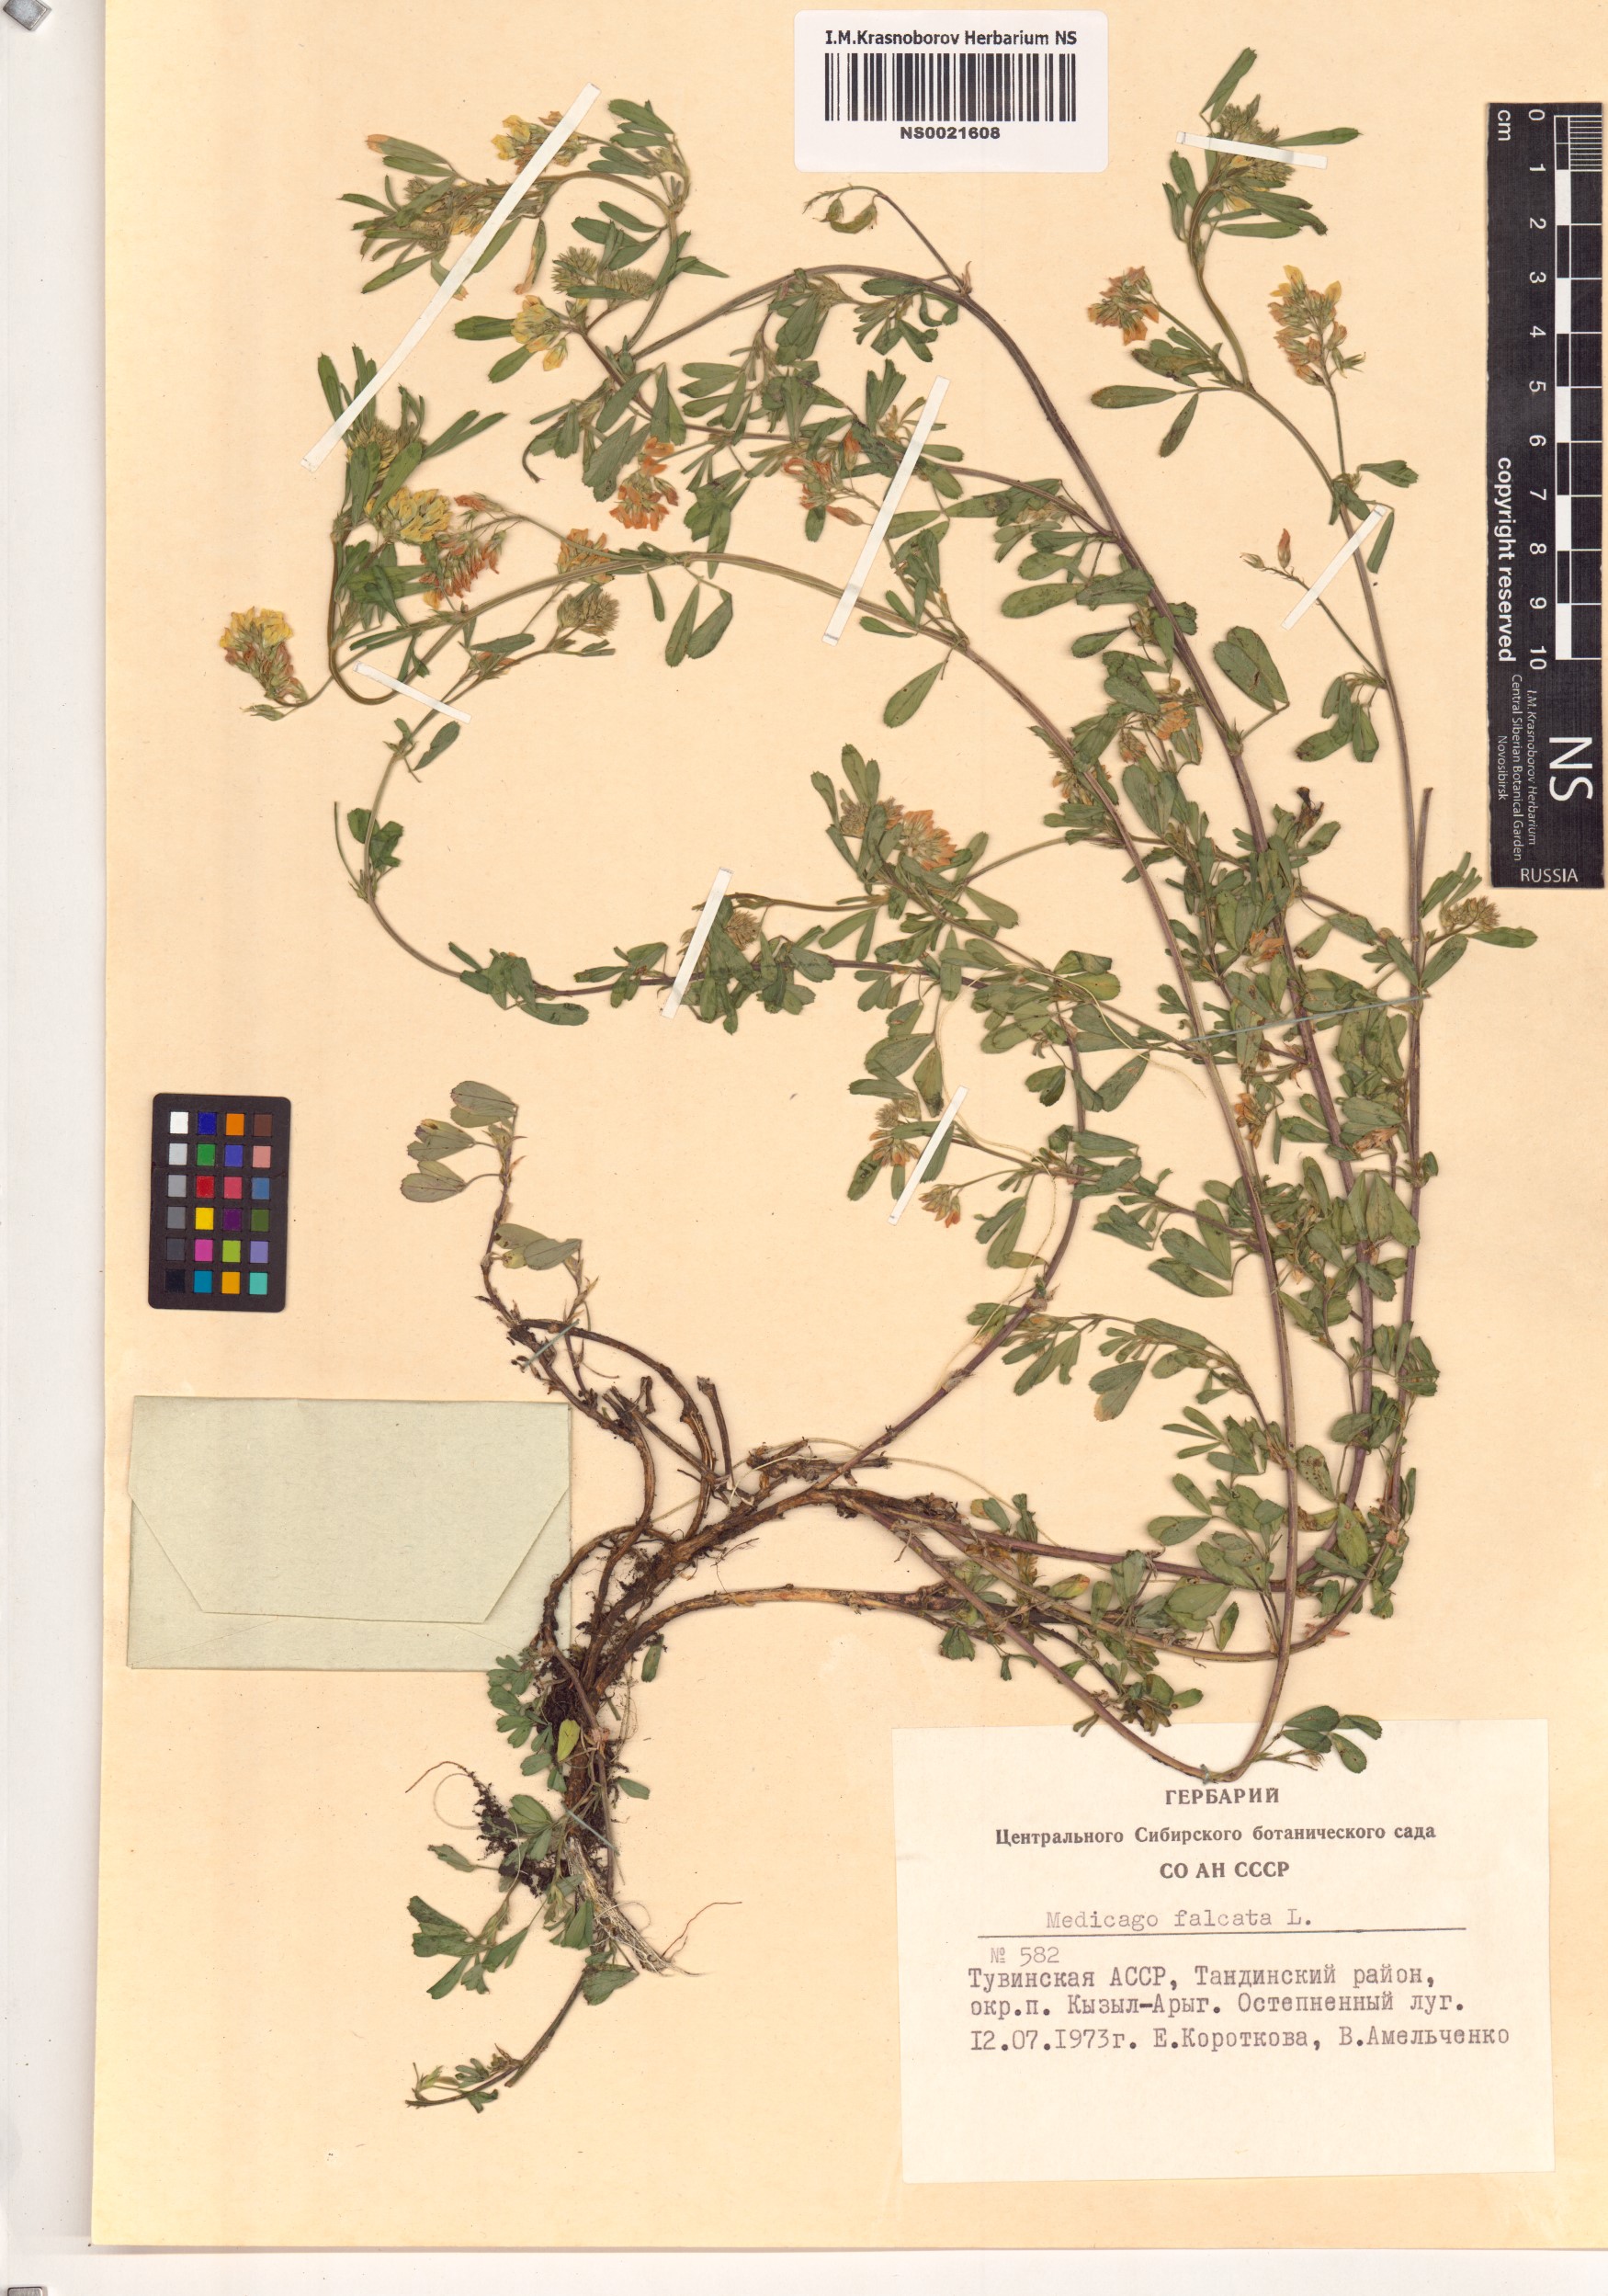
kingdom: Plantae
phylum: Tracheophyta
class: Magnoliopsida
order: Fabales
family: Fabaceae
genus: Medicago
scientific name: Medicago falcata
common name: Sickle medick
